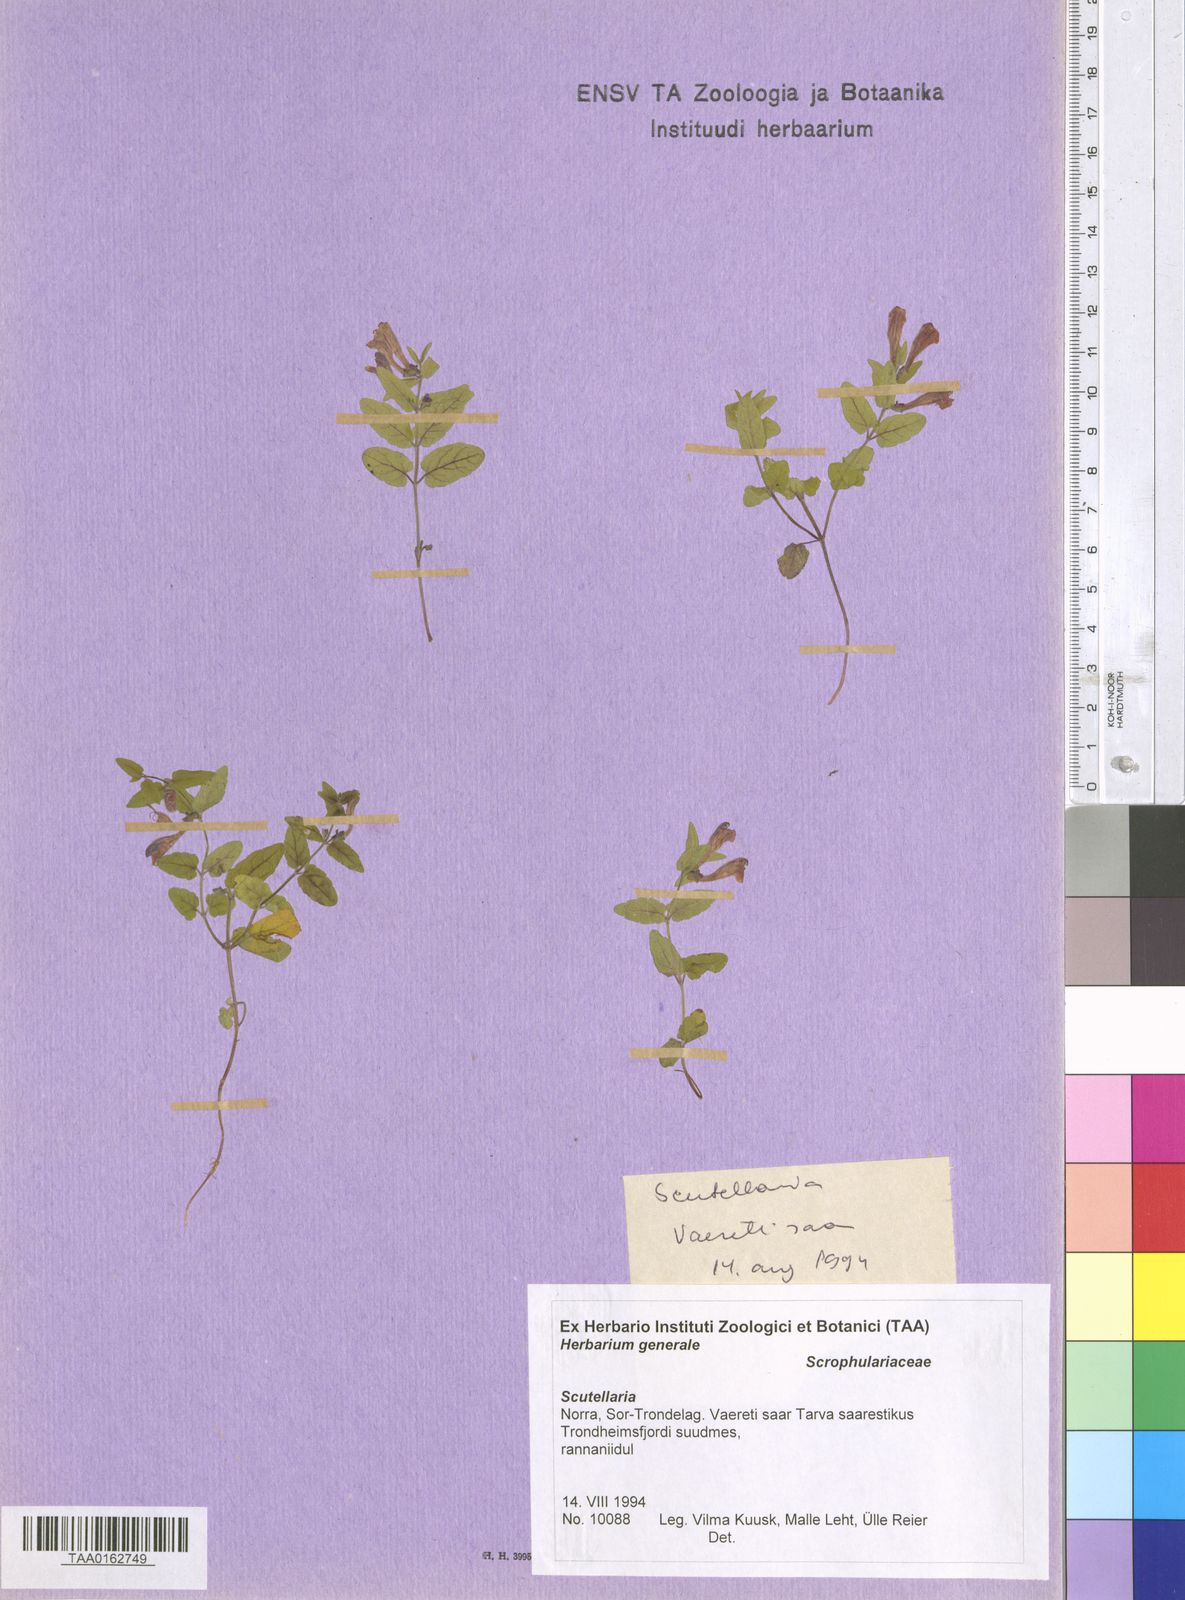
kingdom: Plantae
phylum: Tracheophyta
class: Magnoliopsida
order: Lamiales
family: Lamiaceae
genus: Scutellaria
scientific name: Scutellaria
